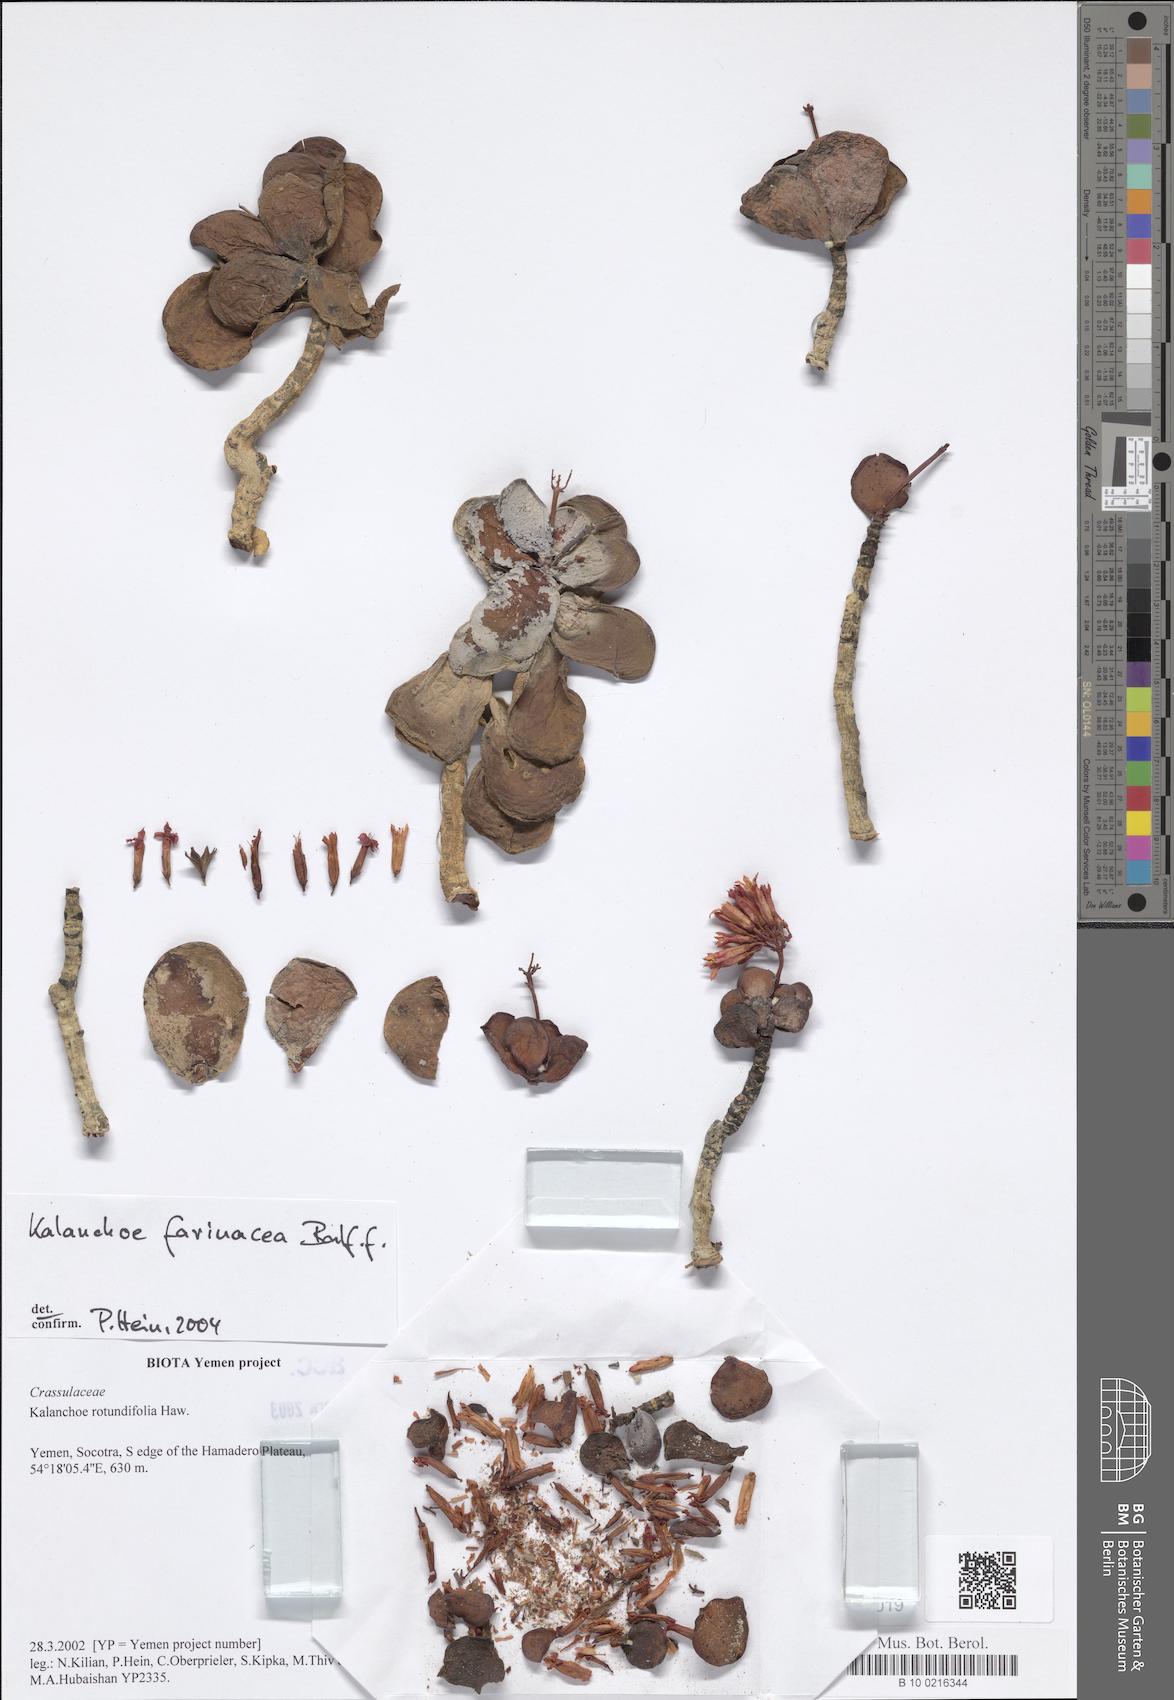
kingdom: Plantae
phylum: Tracheophyta
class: Magnoliopsida
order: Saxifragales
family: Crassulaceae
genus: Kalanchoe
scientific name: Kalanchoe farinacea
